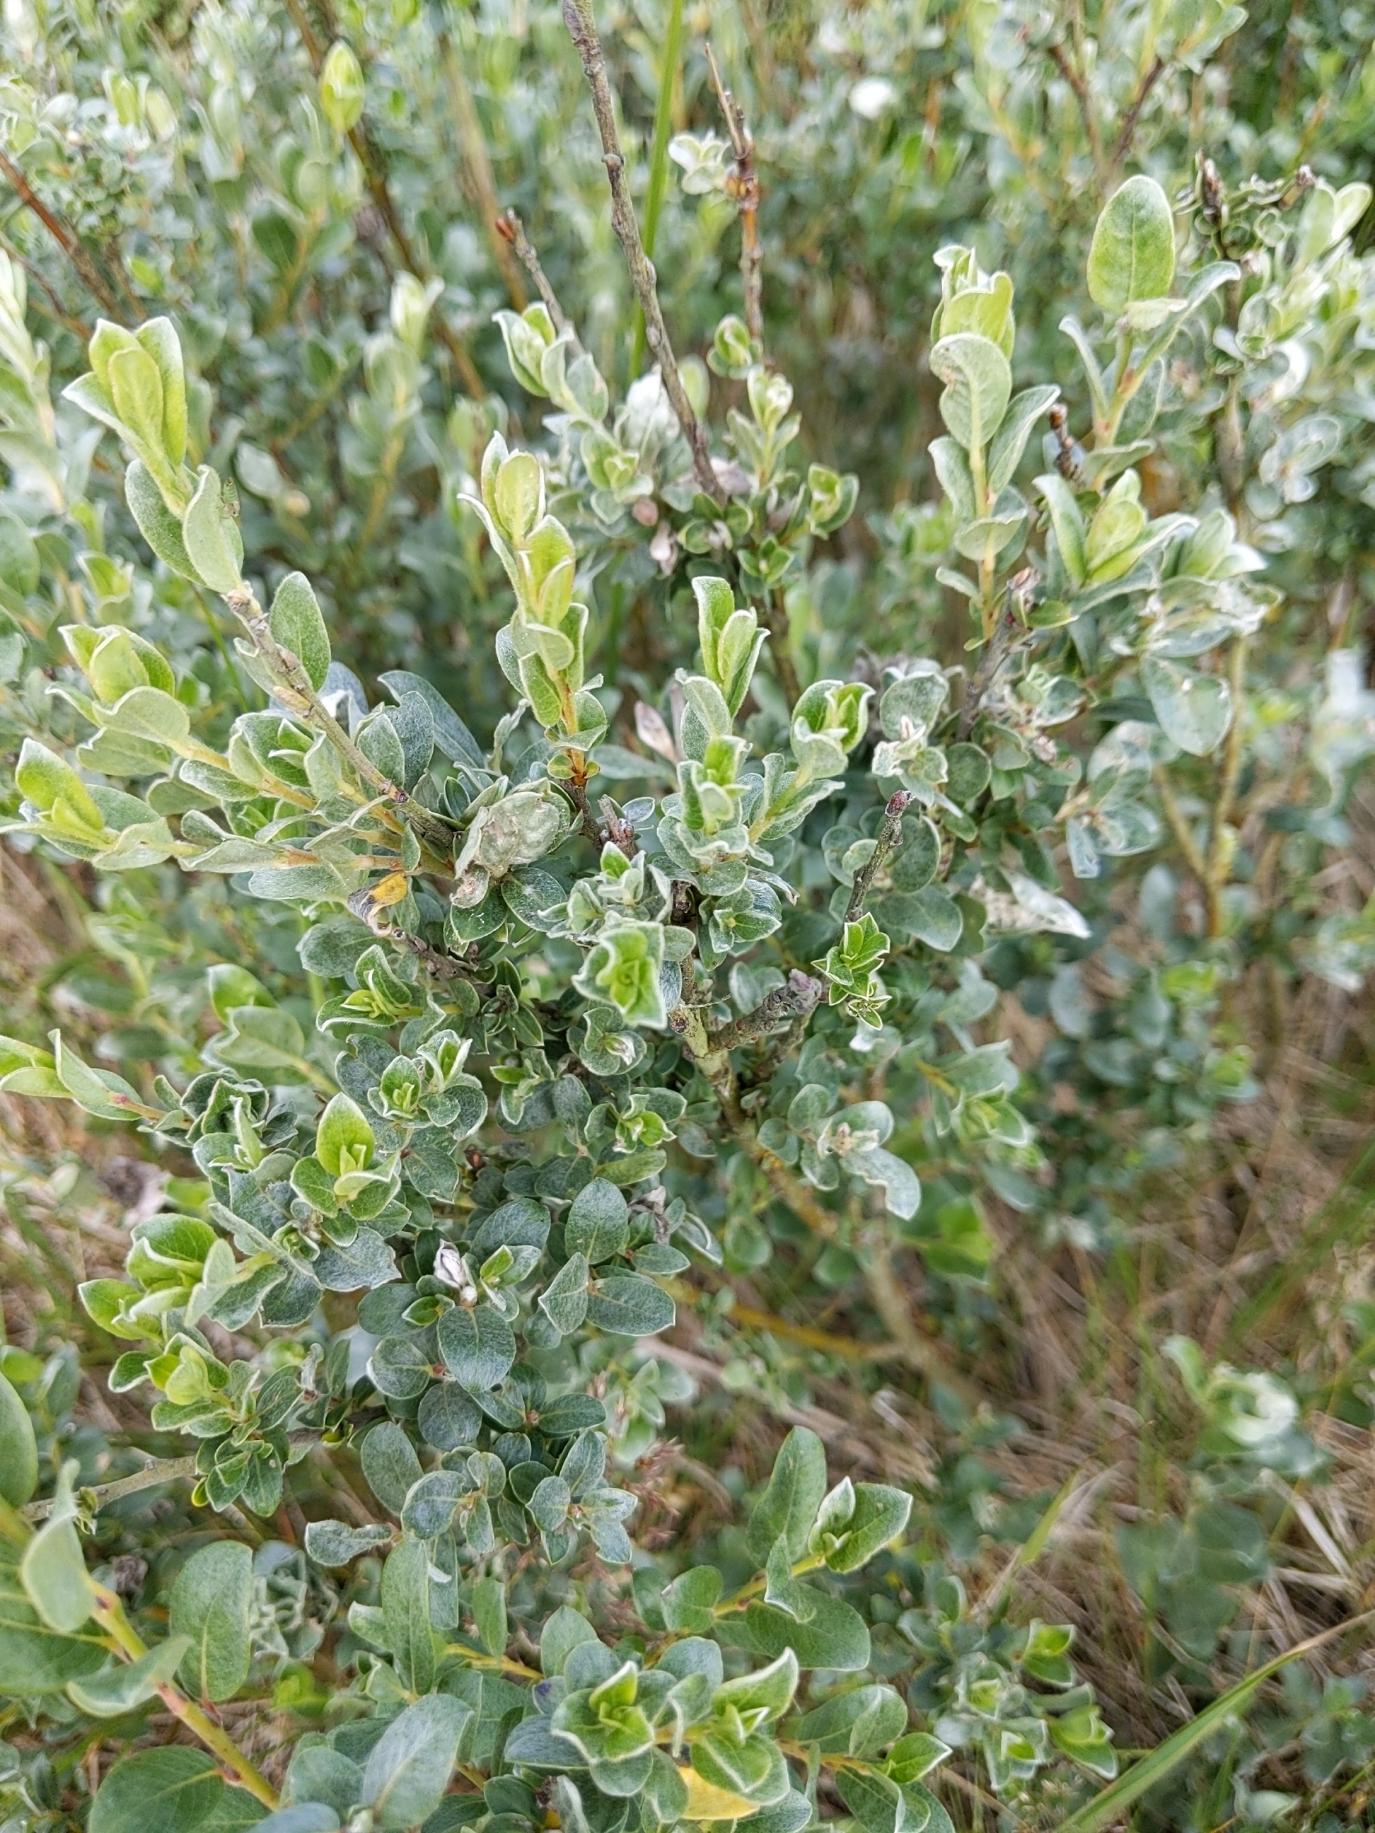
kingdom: Plantae
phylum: Tracheophyta
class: Magnoliopsida
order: Malpighiales
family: Salicaceae
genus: Salix
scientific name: Salix repens
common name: Gråris
